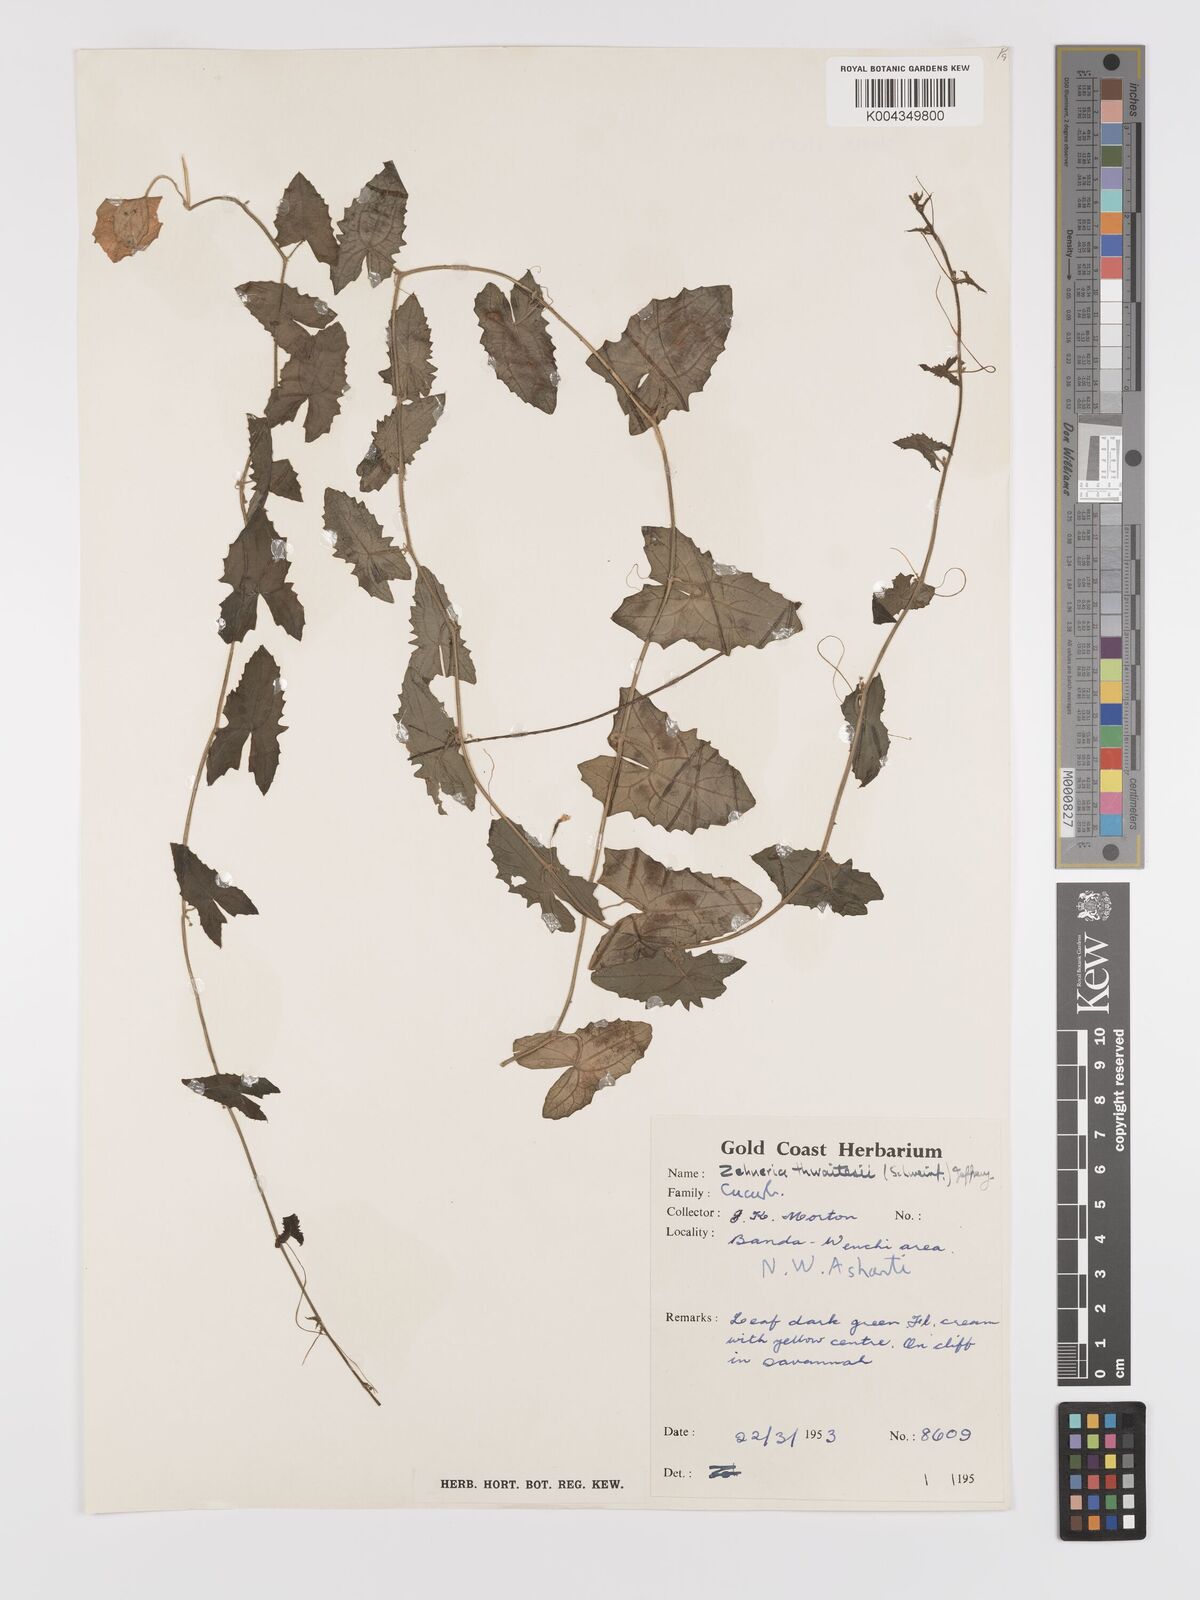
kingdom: Plantae
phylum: Tracheophyta
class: Magnoliopsida
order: Cucurbitales
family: Cucurbitaceae
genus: Zehneria
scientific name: Zehneria hallii
